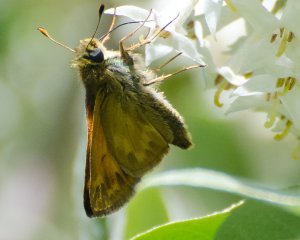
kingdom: Animalia
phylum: Arthropoda
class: Insecta
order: Lepidoptera
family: Hesperiidae
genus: Hesperia
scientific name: Hesperia sassacus
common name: Sassacus Skipper
